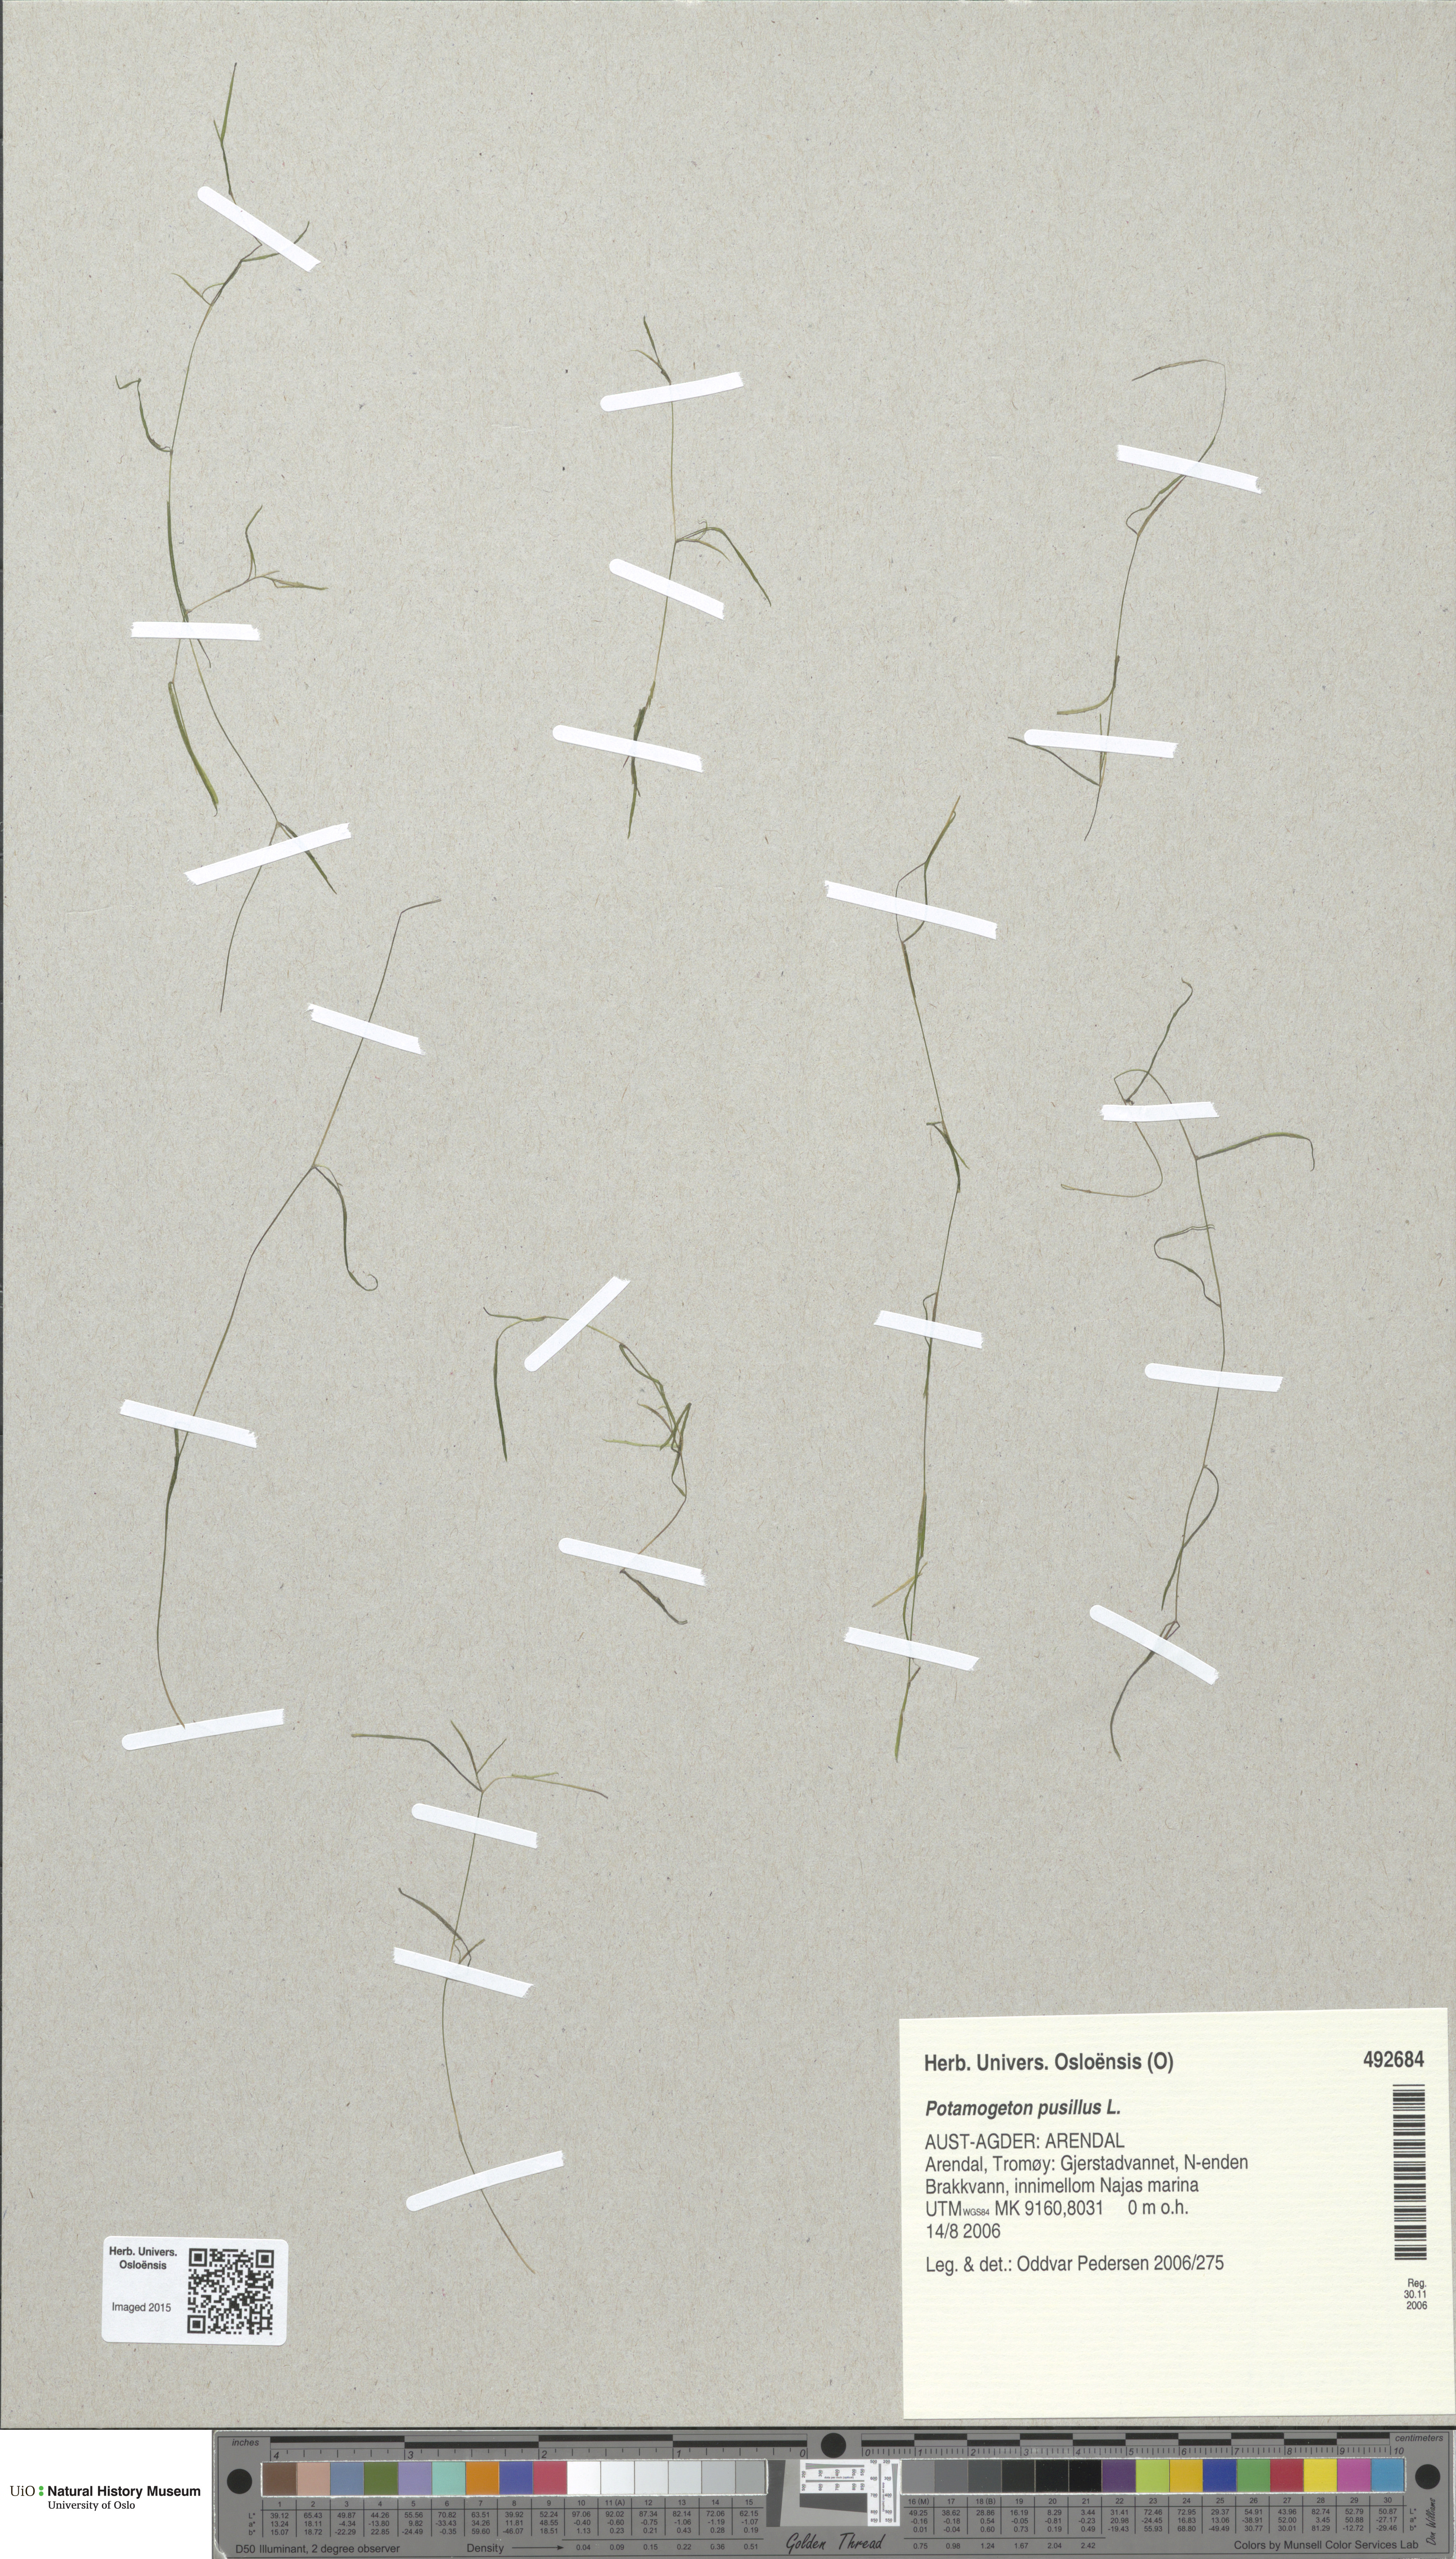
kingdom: Plantae
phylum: Tracheophyta
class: Liliopsida
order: Alismatales
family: Potamogetonaceae
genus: Potamogeton
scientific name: Potamogeton berchtoldii
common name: Small pondweed
